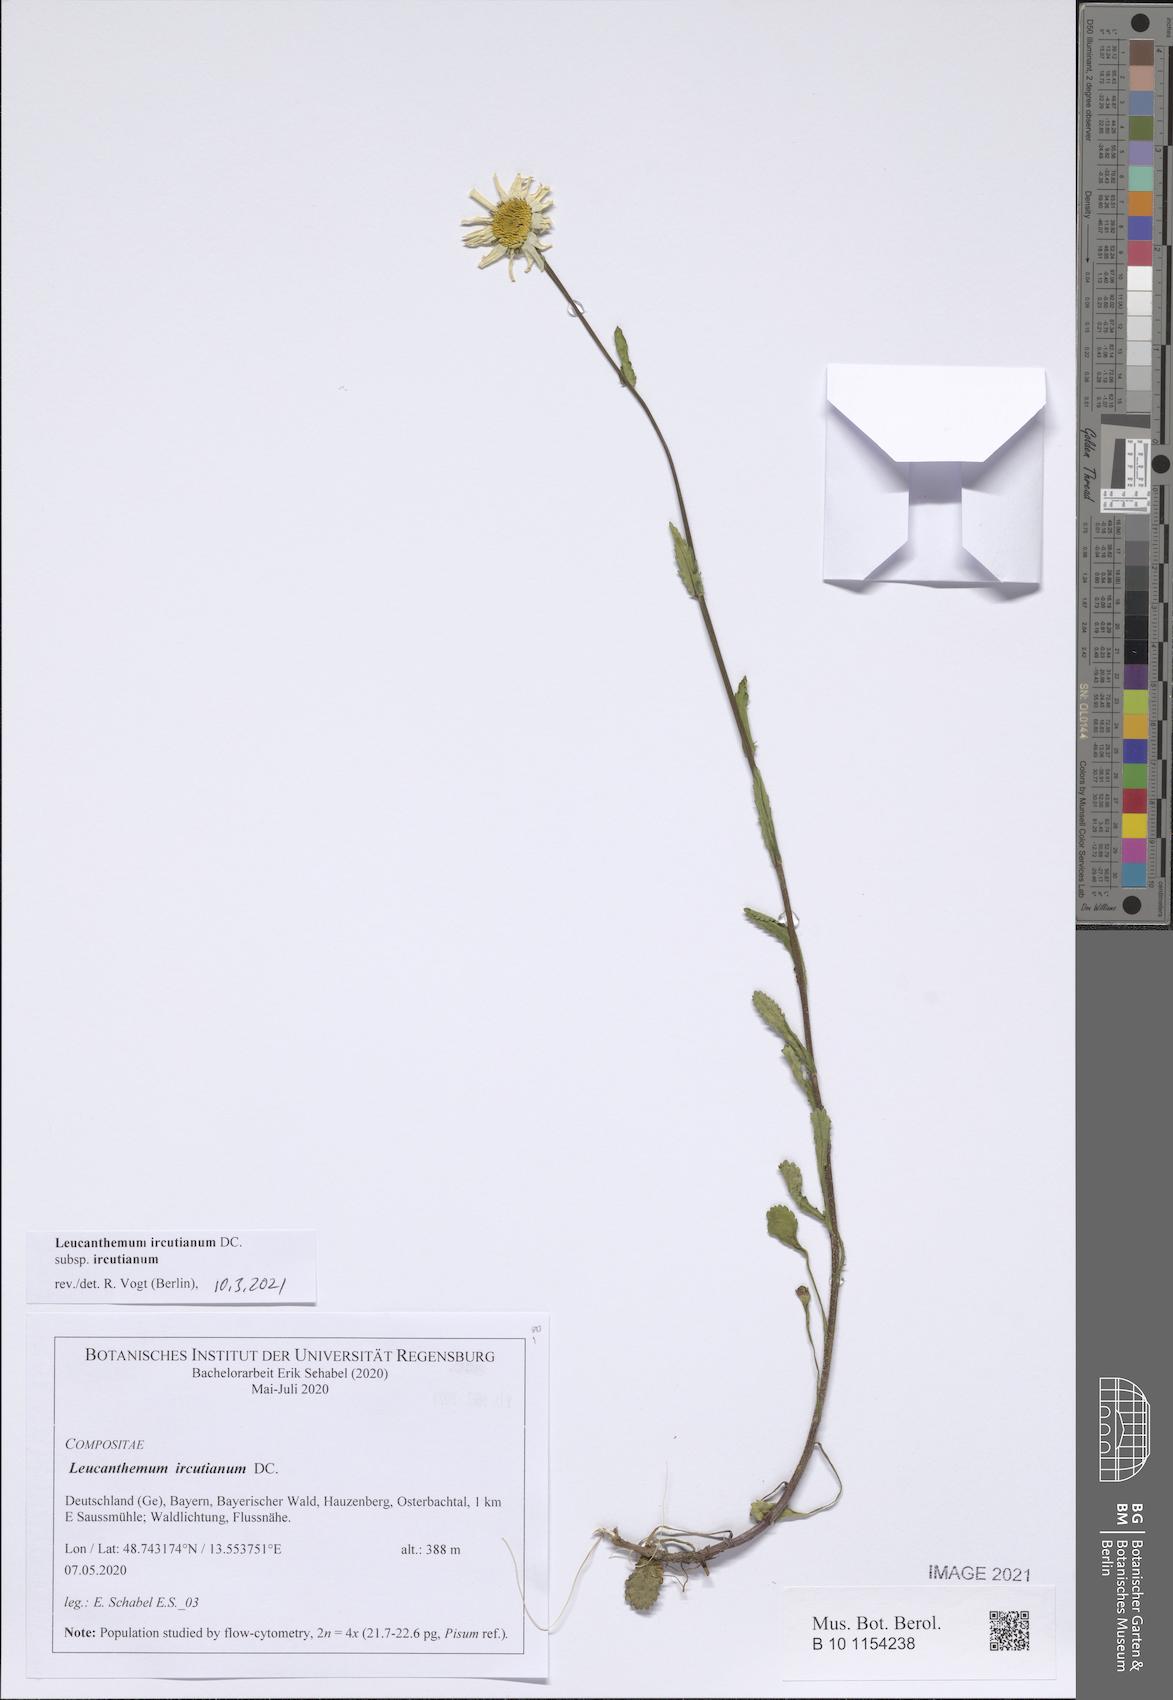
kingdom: Plantae
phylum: Tracheophyta
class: Magnoliopsida
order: Asterales
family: Asteraceae
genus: Leucanthemum
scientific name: Leucanthemum ircutianum
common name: Daisy
